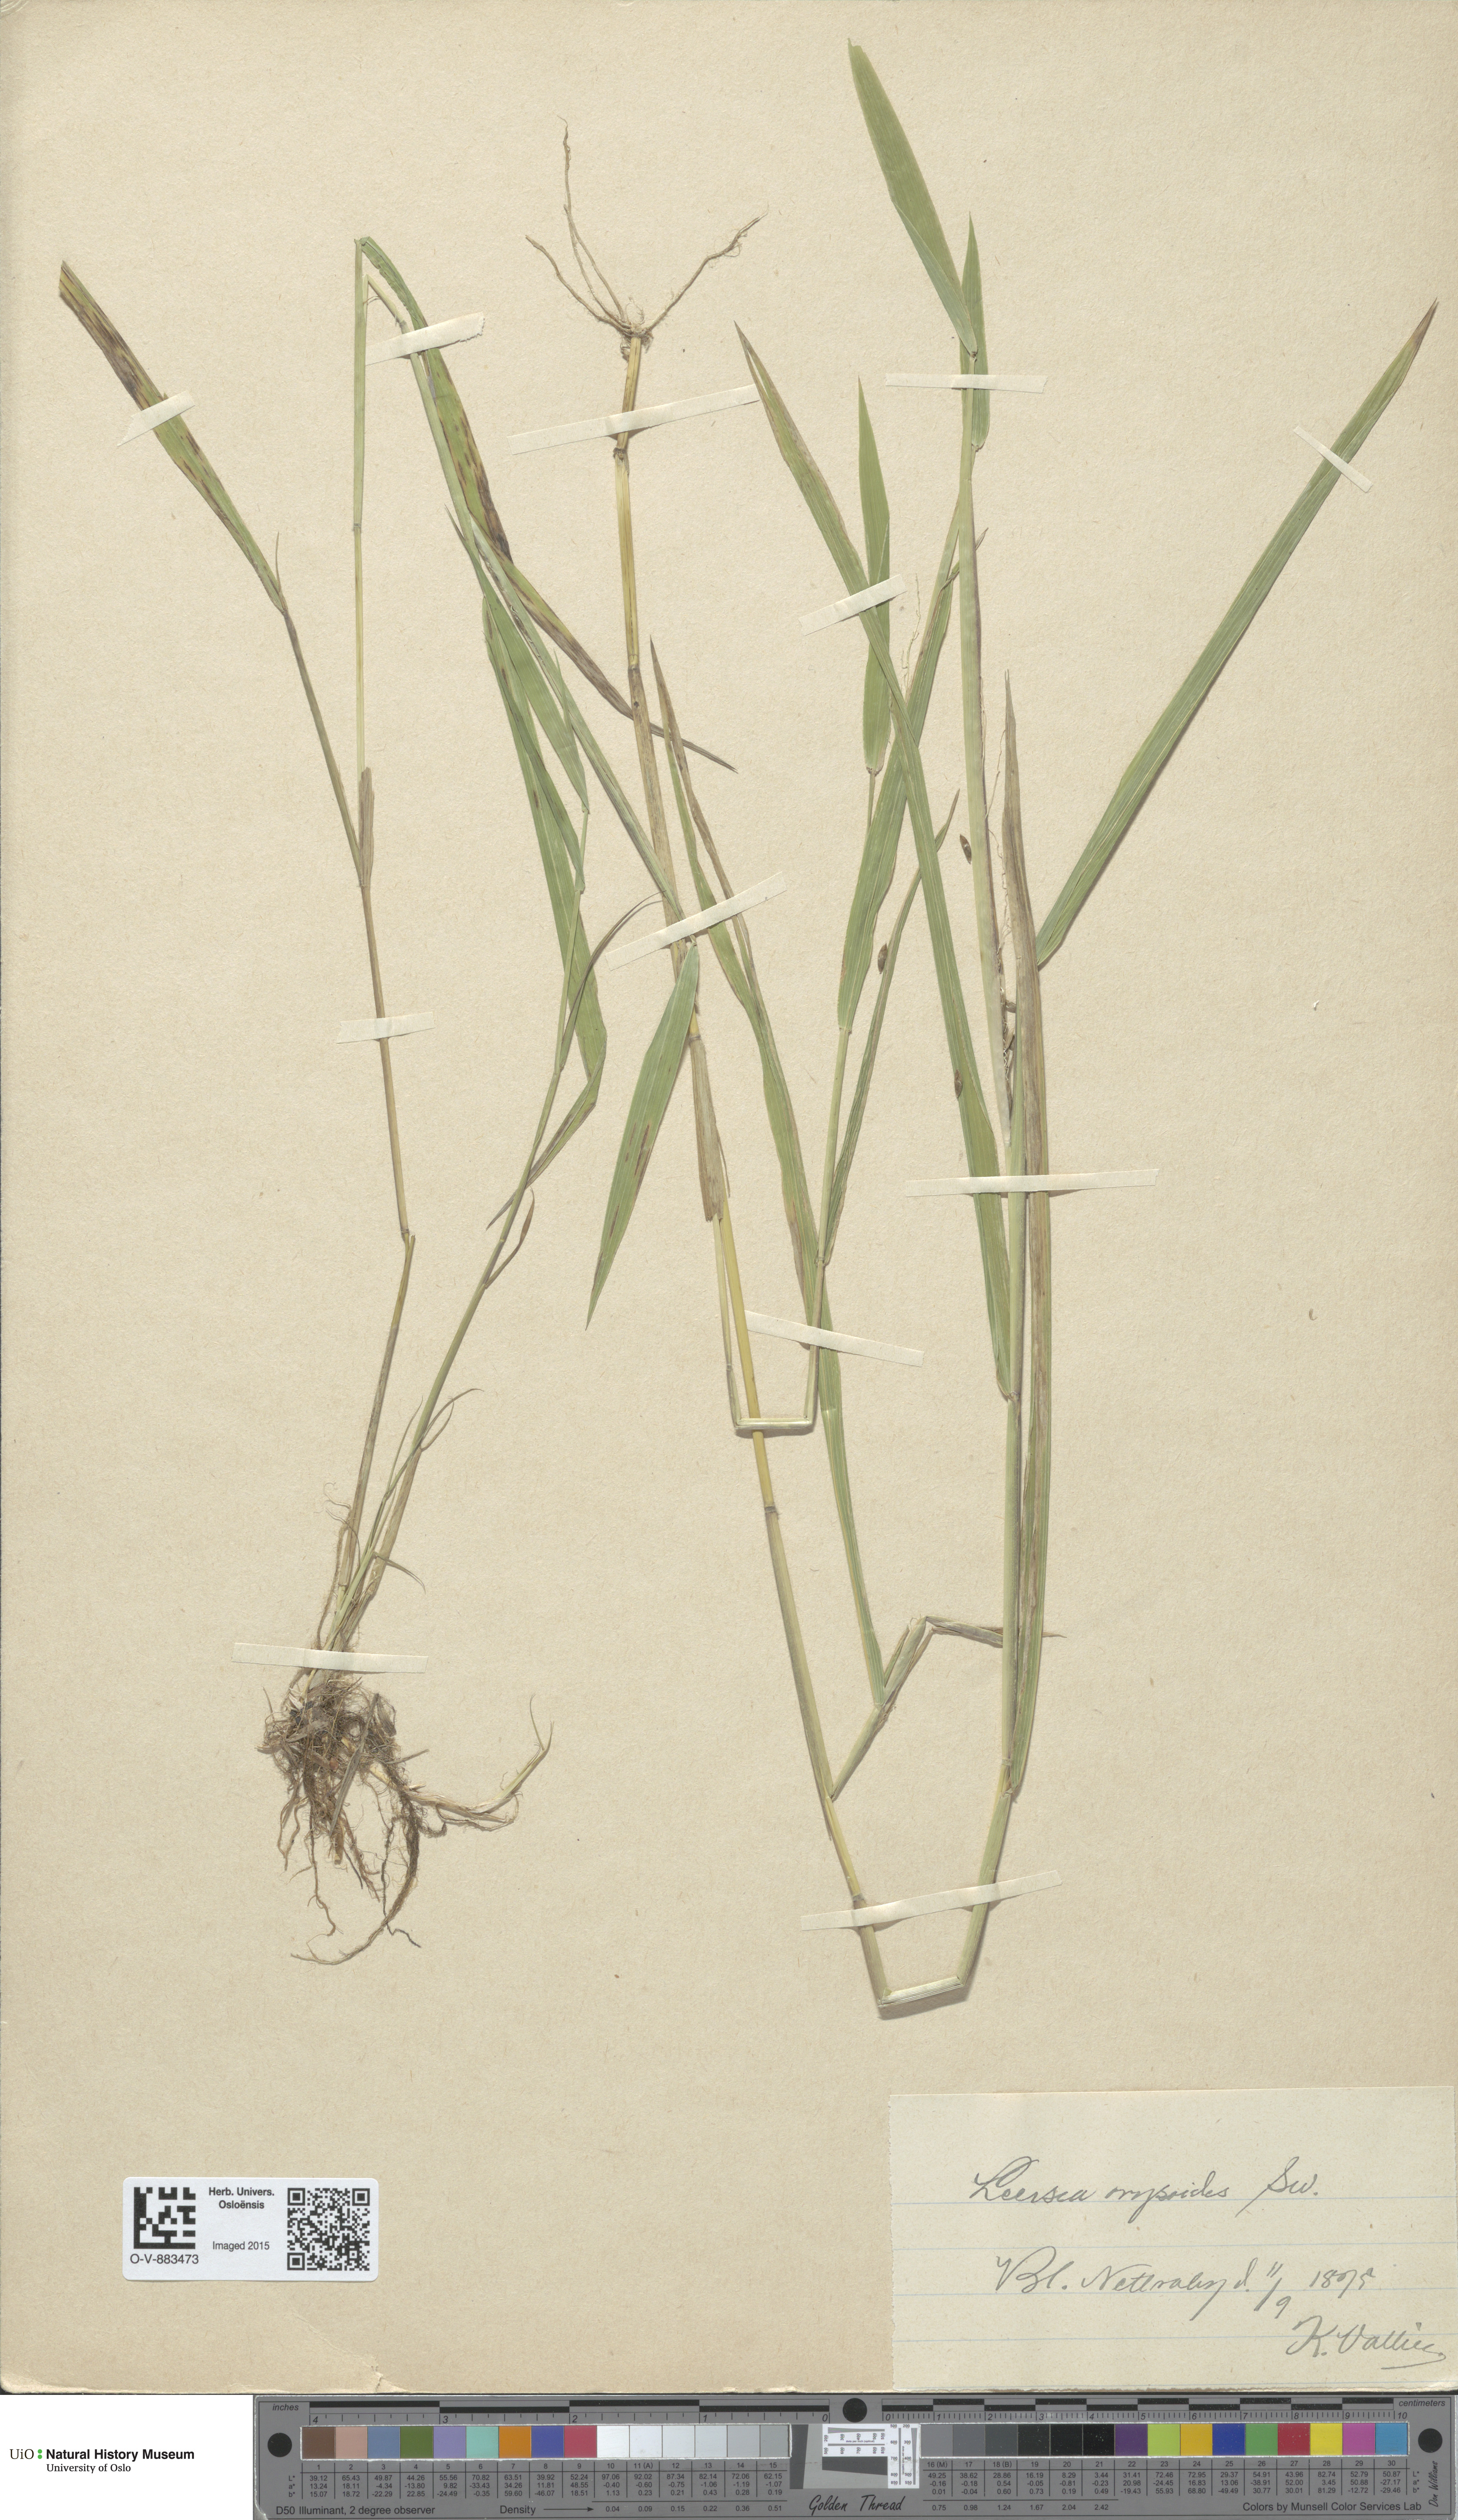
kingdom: Plantae
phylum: Tracheophyta
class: Liliopsida
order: Poales
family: Poaceae
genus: Leersia
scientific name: Leersia oryzoides
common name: Cut-grass
